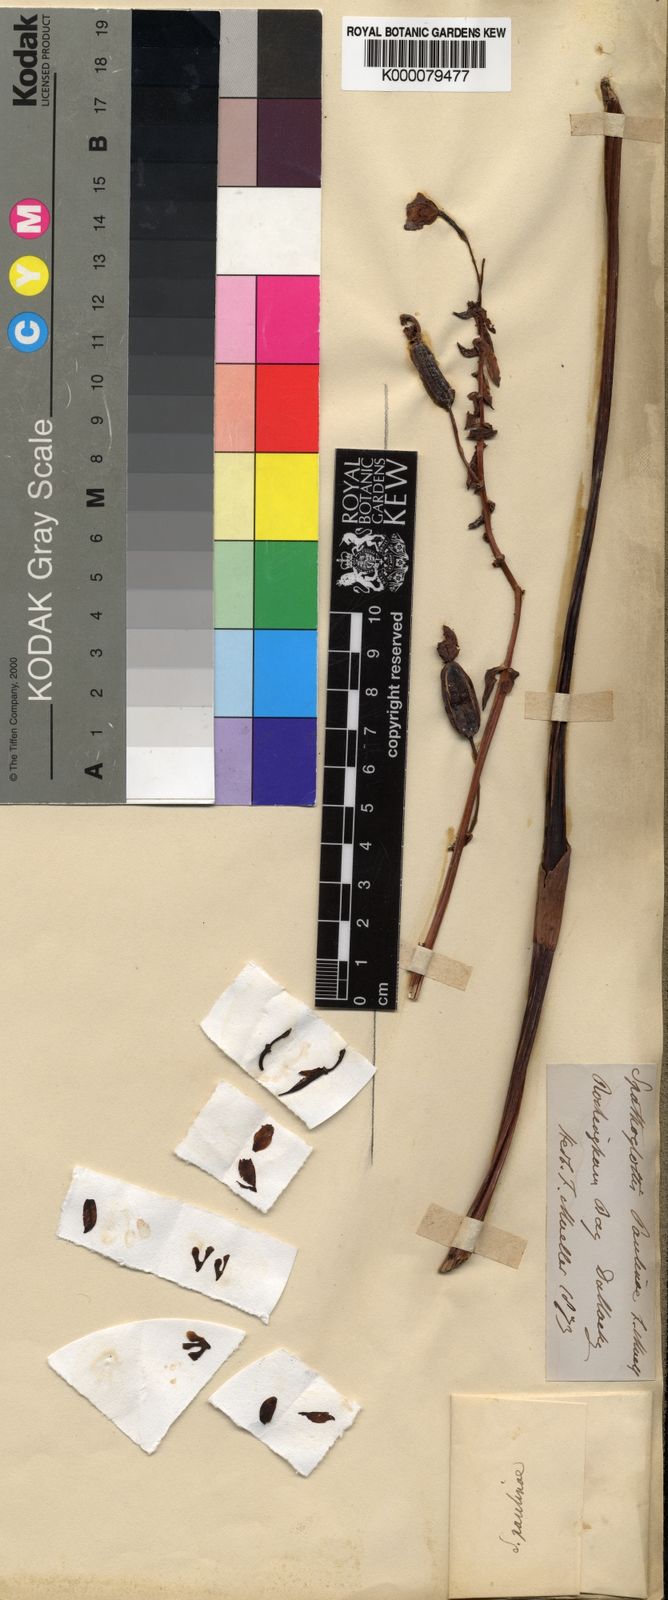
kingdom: Plantae
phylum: Tracheophyta
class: Liliopsida
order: Asparagales
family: Orchidaceae
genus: Spathoglottis
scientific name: Spathoglottis paulinae
